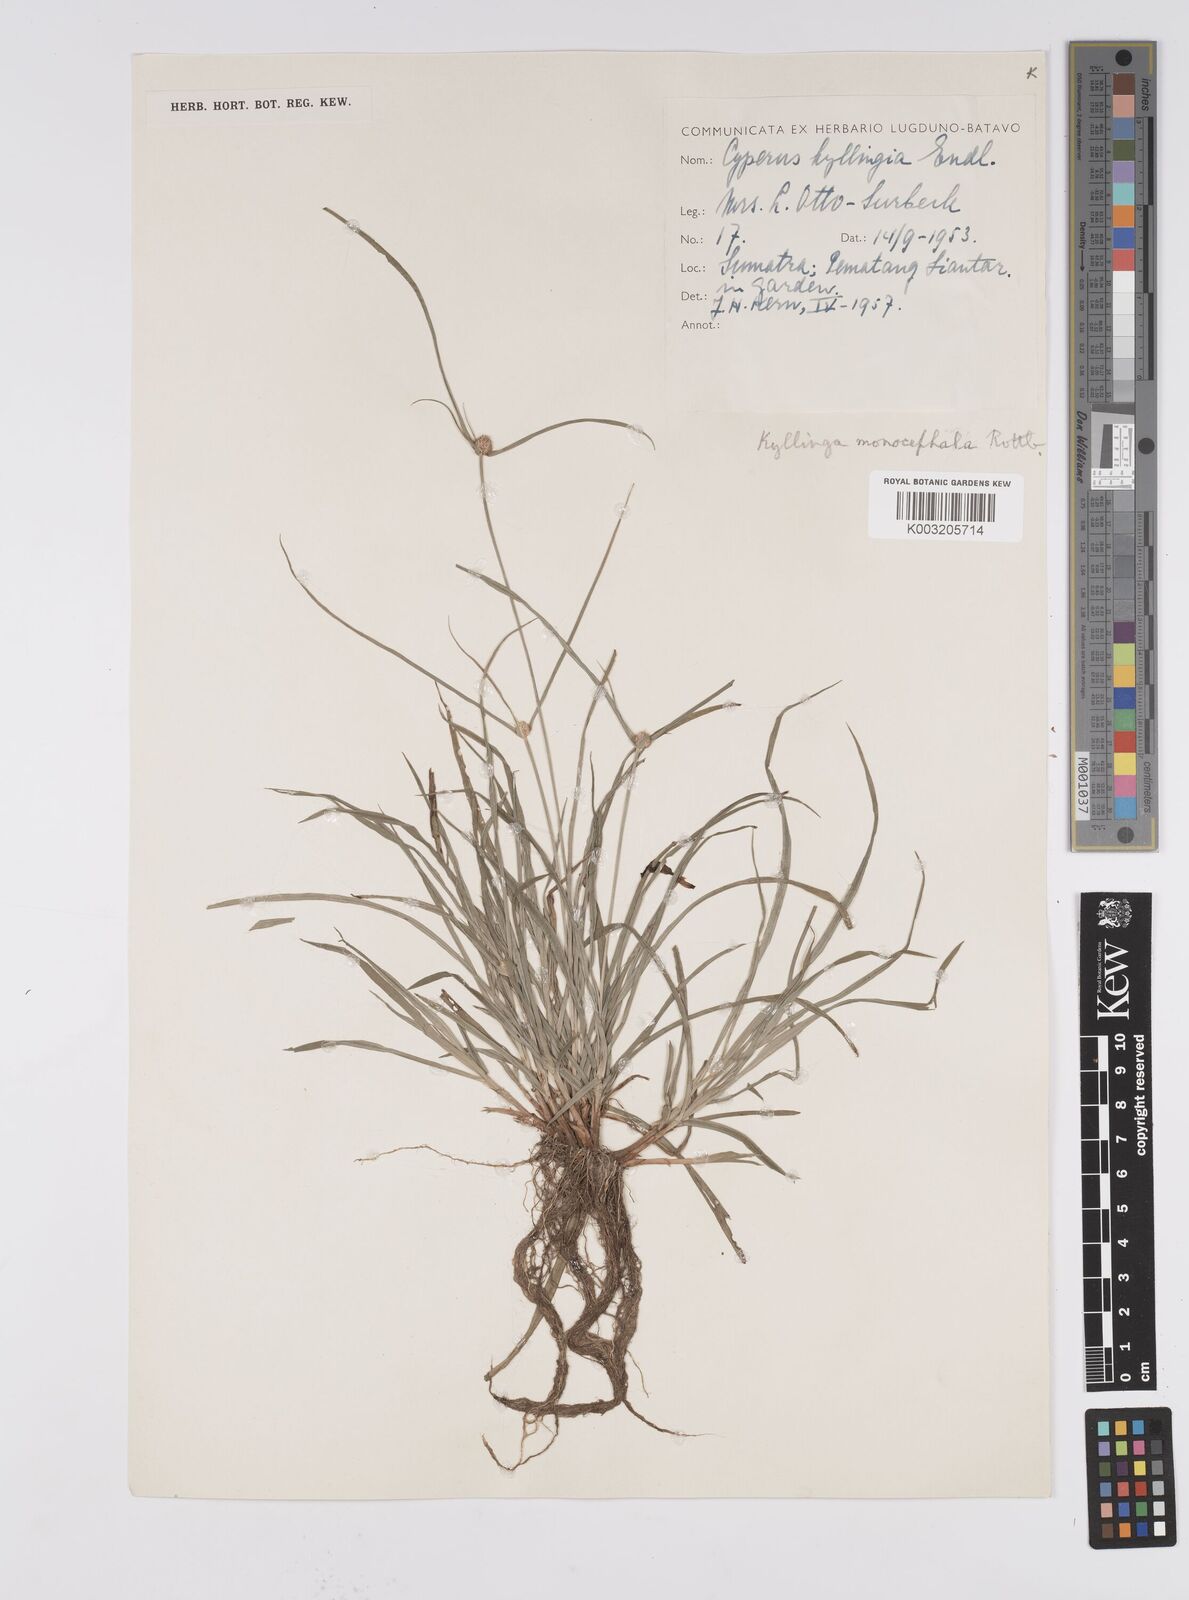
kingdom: Plantae
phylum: Tracheophyta
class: Liliopsida
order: Poales
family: Cyperaceae
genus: Cyperus
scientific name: Cyperus nemoralis
